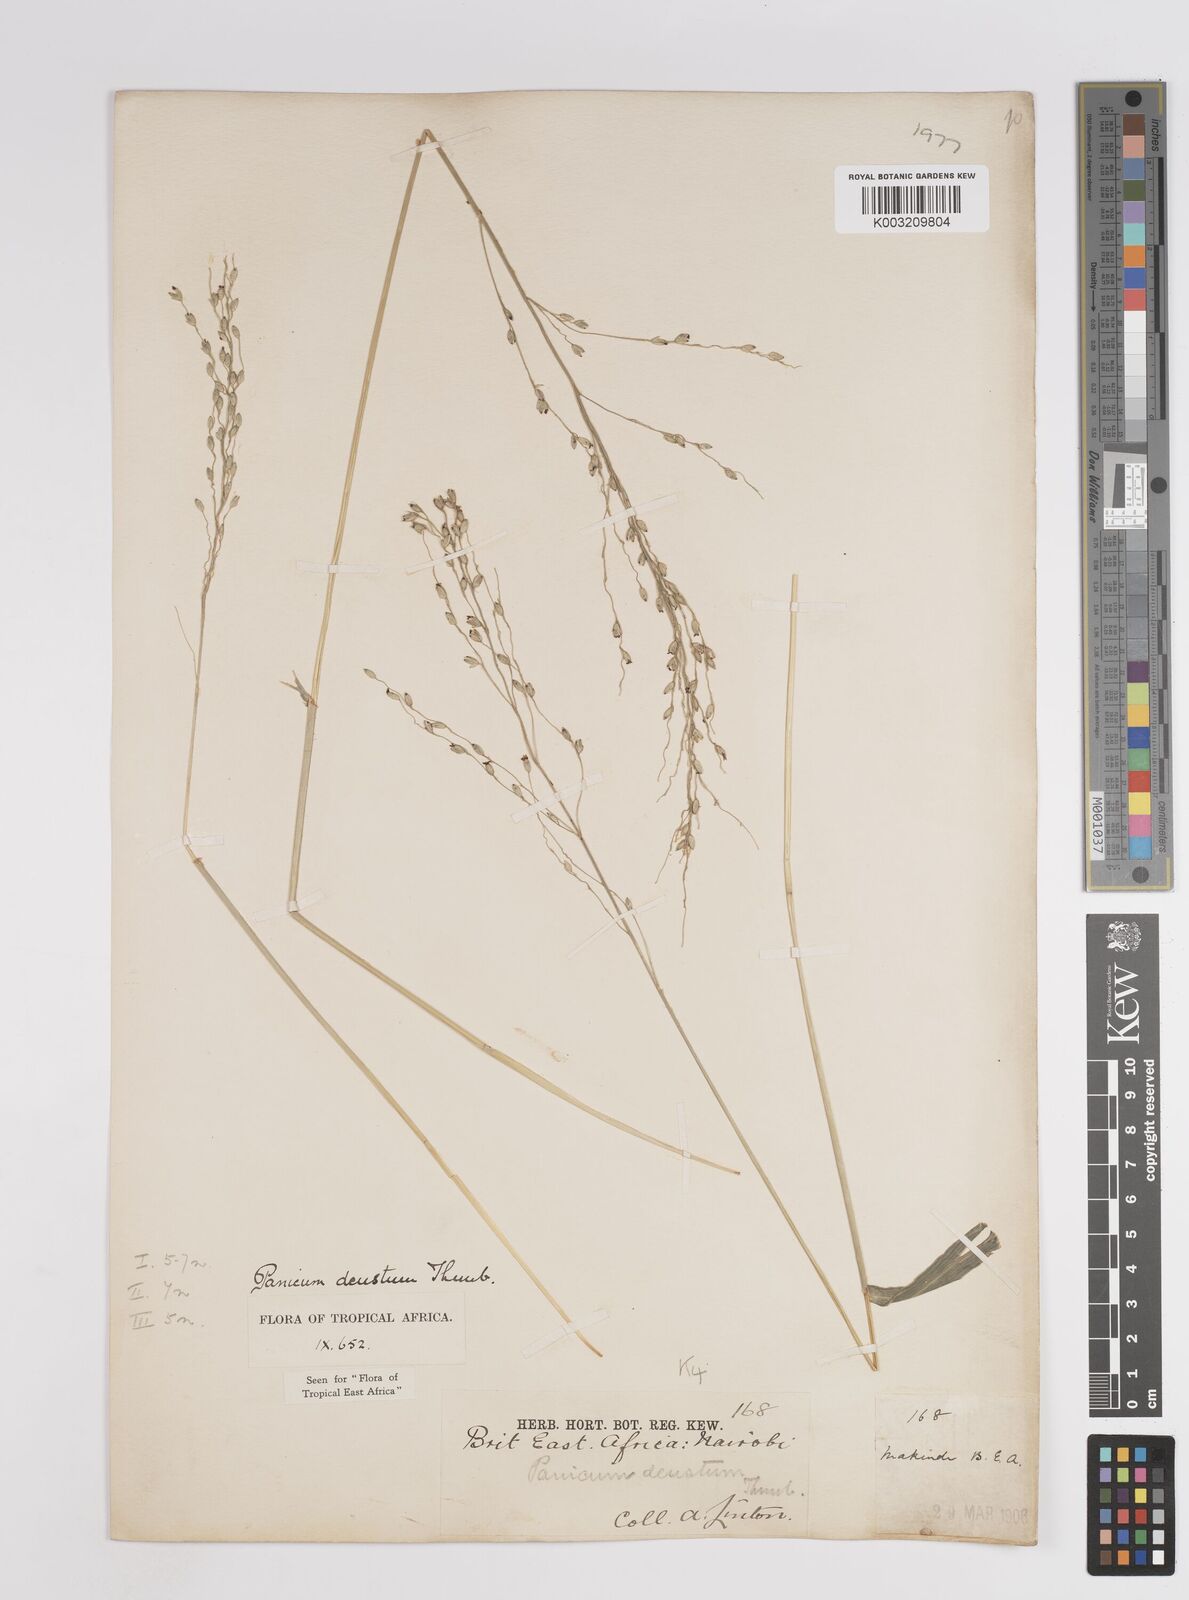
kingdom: Plantae
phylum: Tracheophyta
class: Liliopsida
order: Poales
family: Poaceae
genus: Panicum
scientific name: Panicum deustum
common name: Reed panicum
